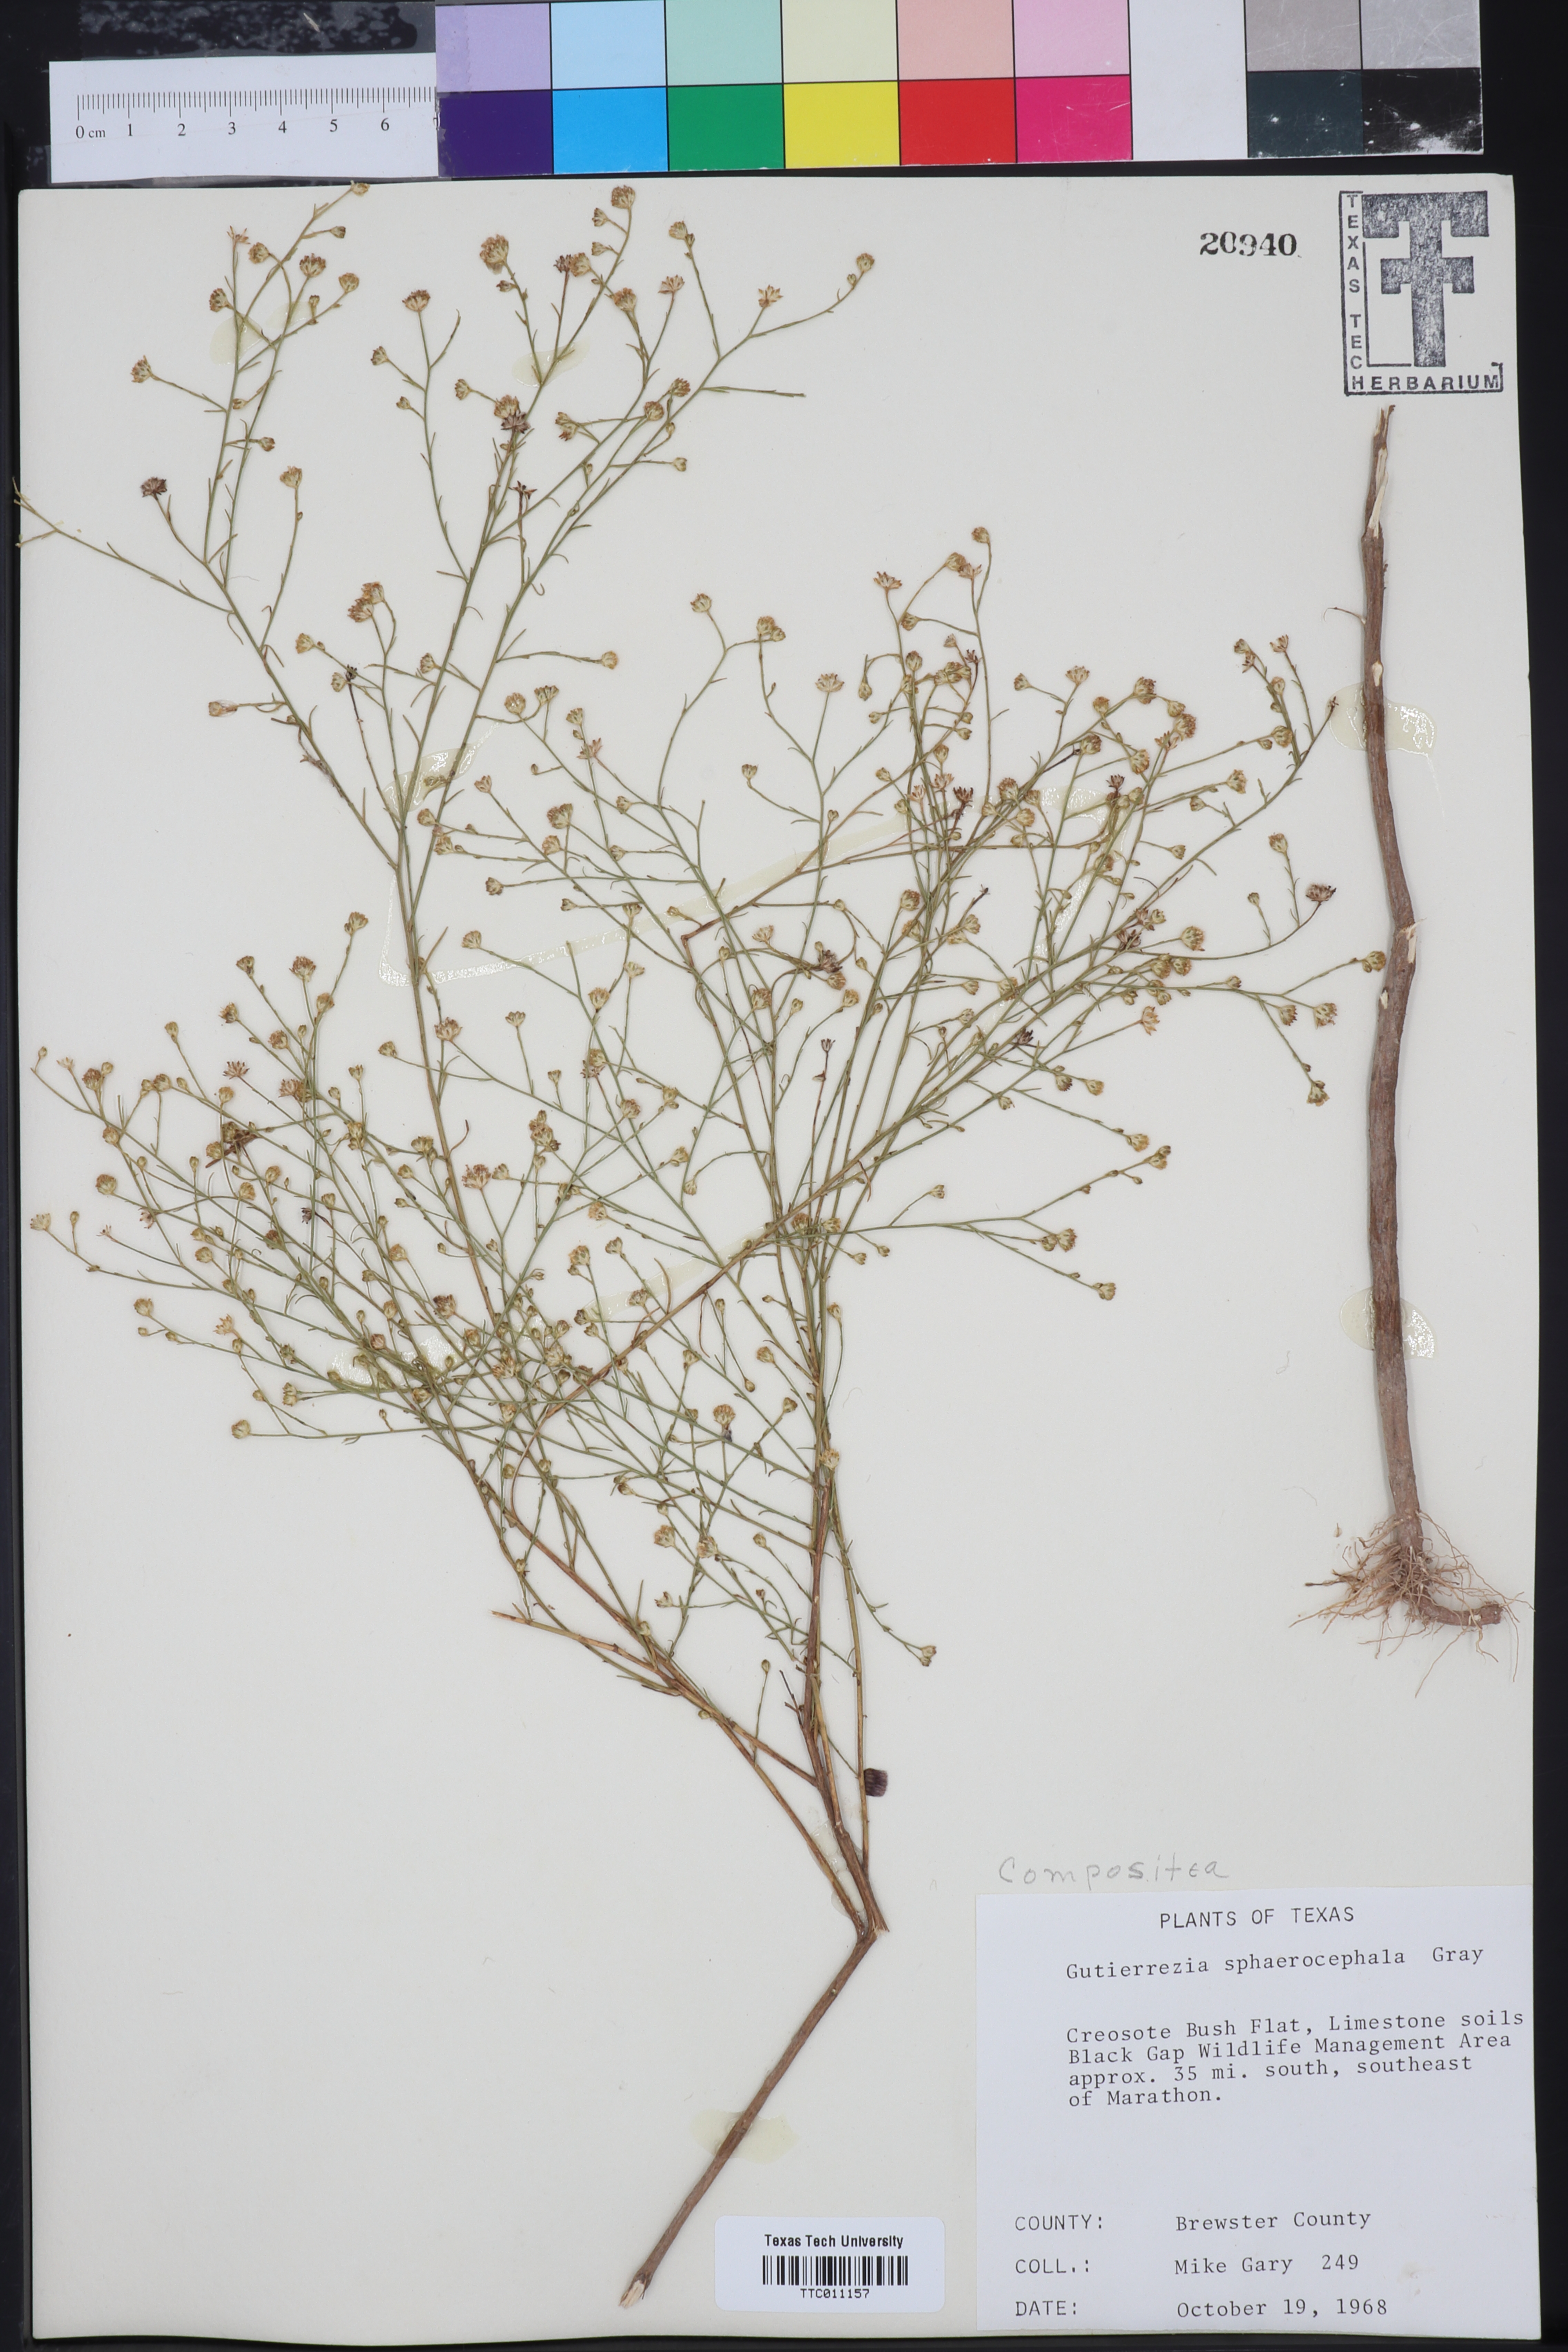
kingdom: Plantae
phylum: Tracheophyta
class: Magnoliopsida
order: Asterales
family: Asteraceae
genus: Gutierrezia
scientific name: Gutierrezia sphaerocephala
